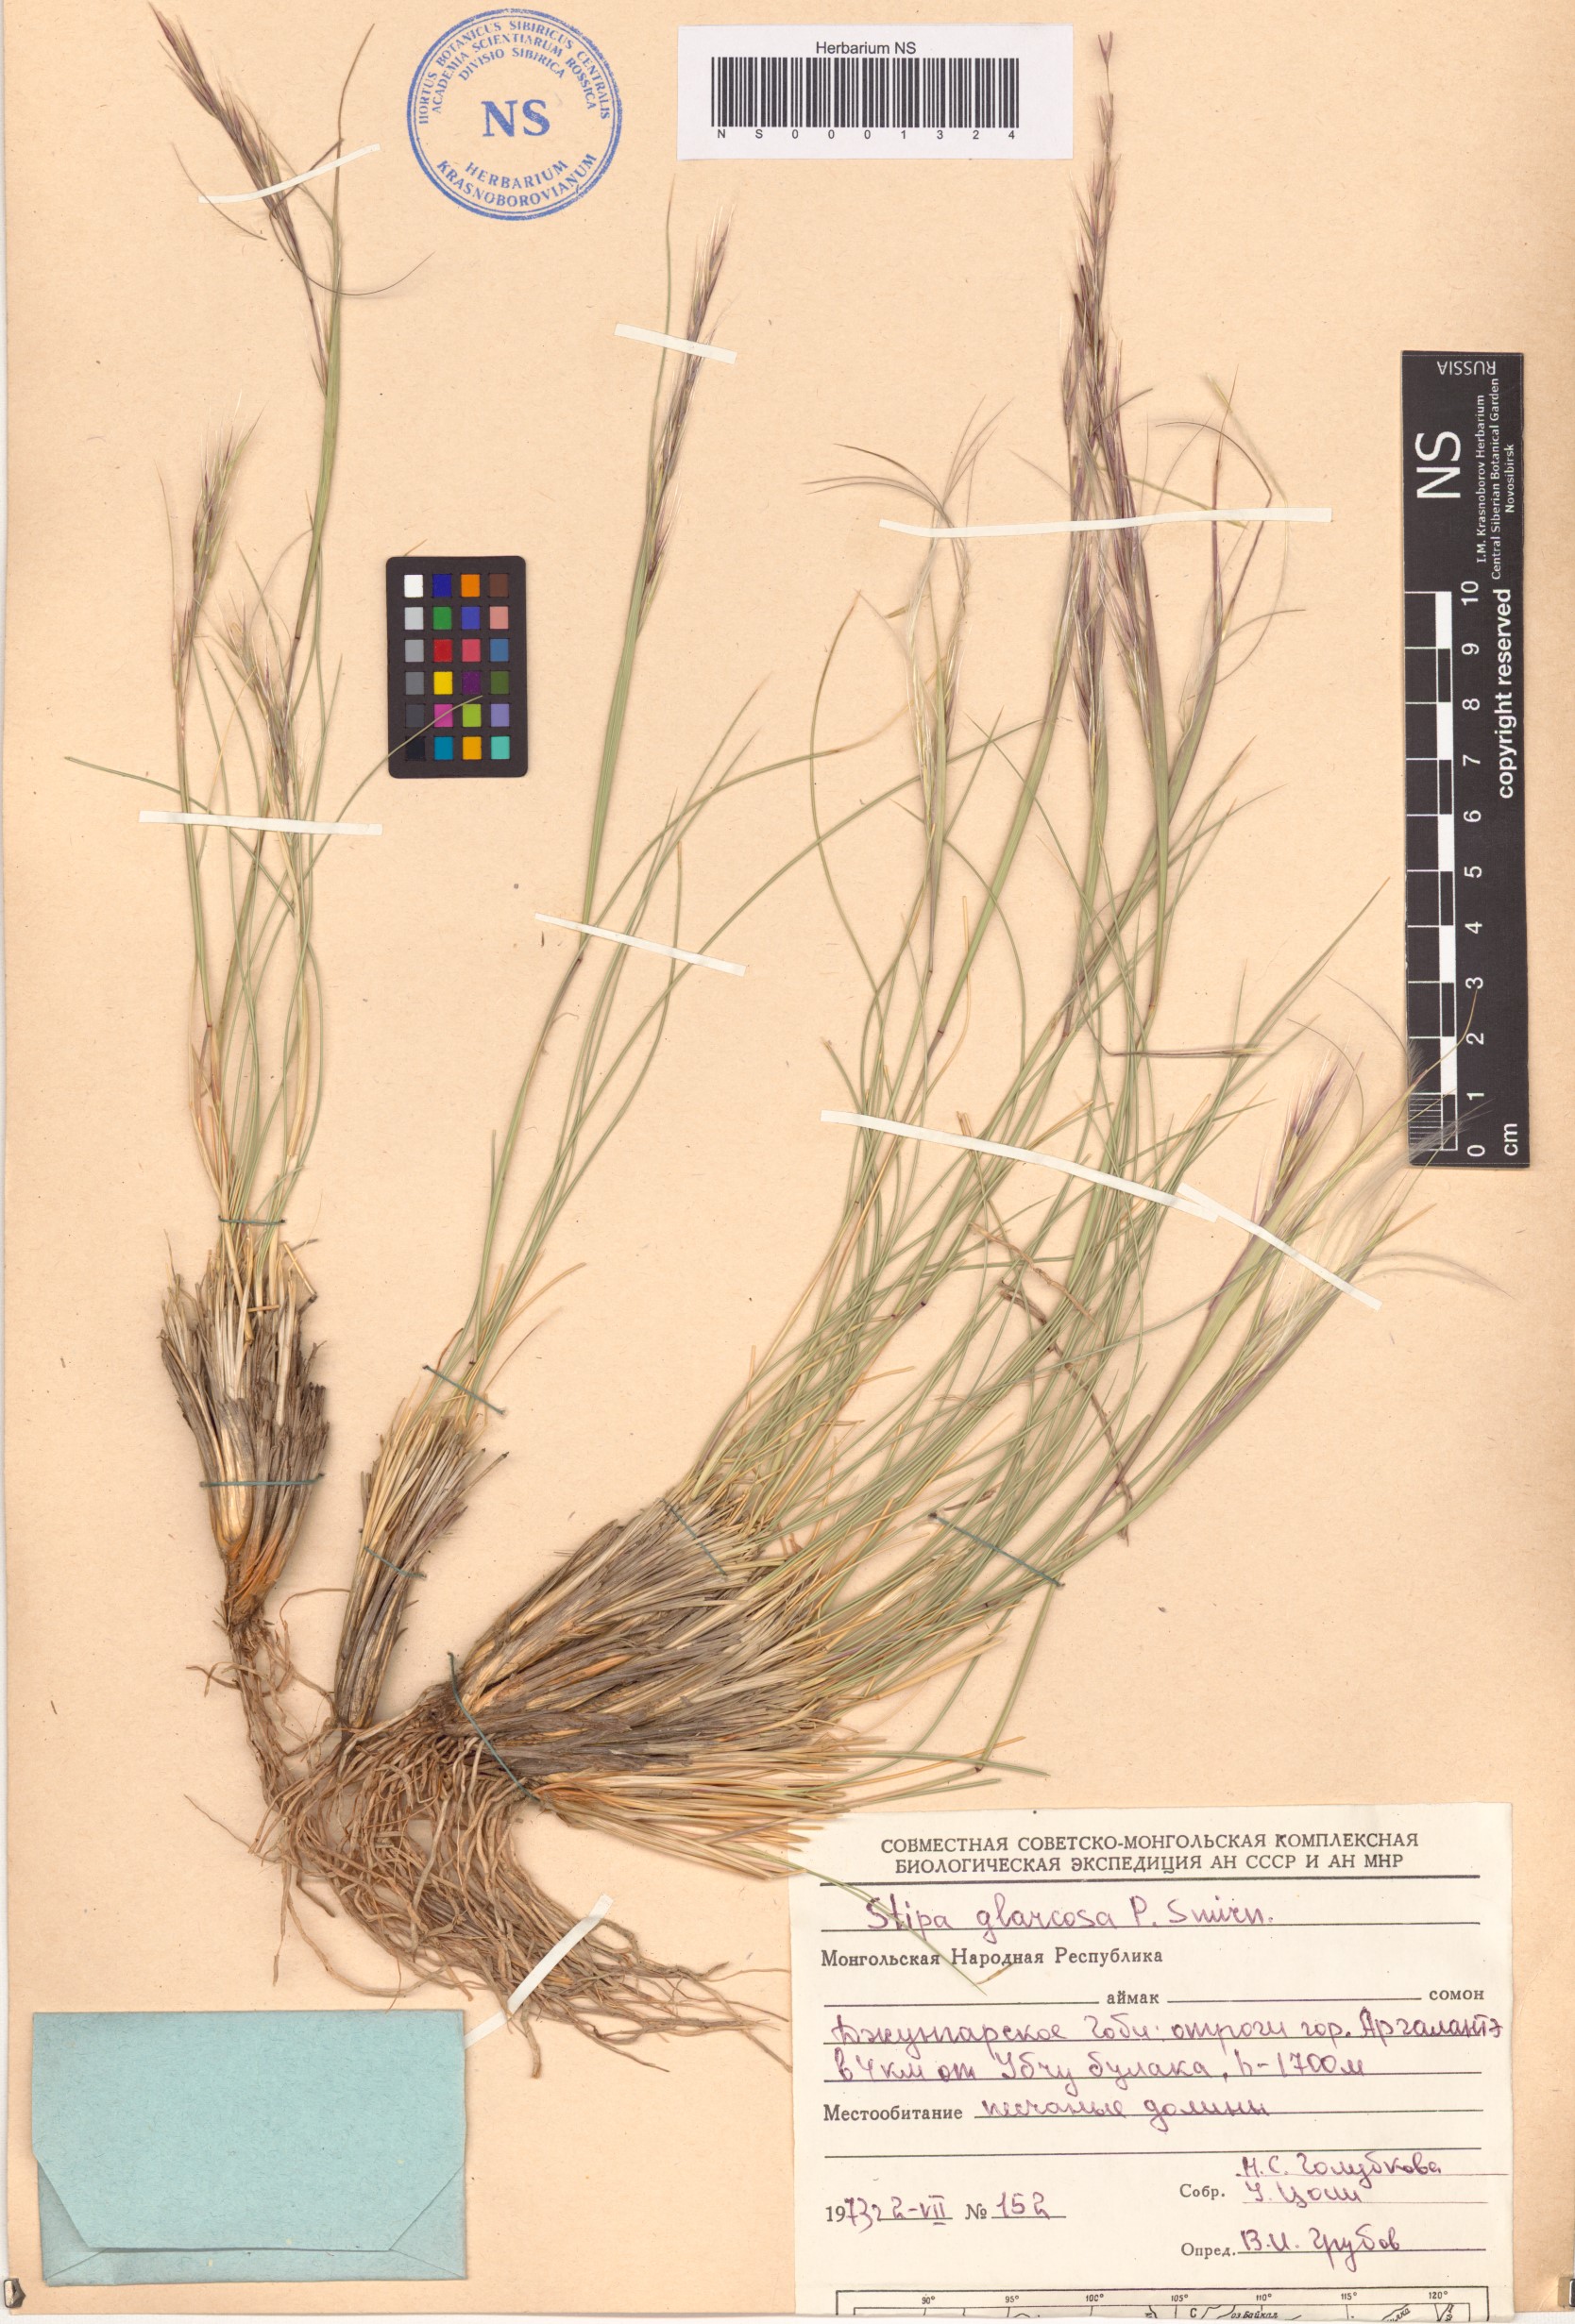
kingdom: Plantae
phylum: Tracheophyta
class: Liliopsida
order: Poales
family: Poaceae
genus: Stipa
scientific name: Stipa glareosa
